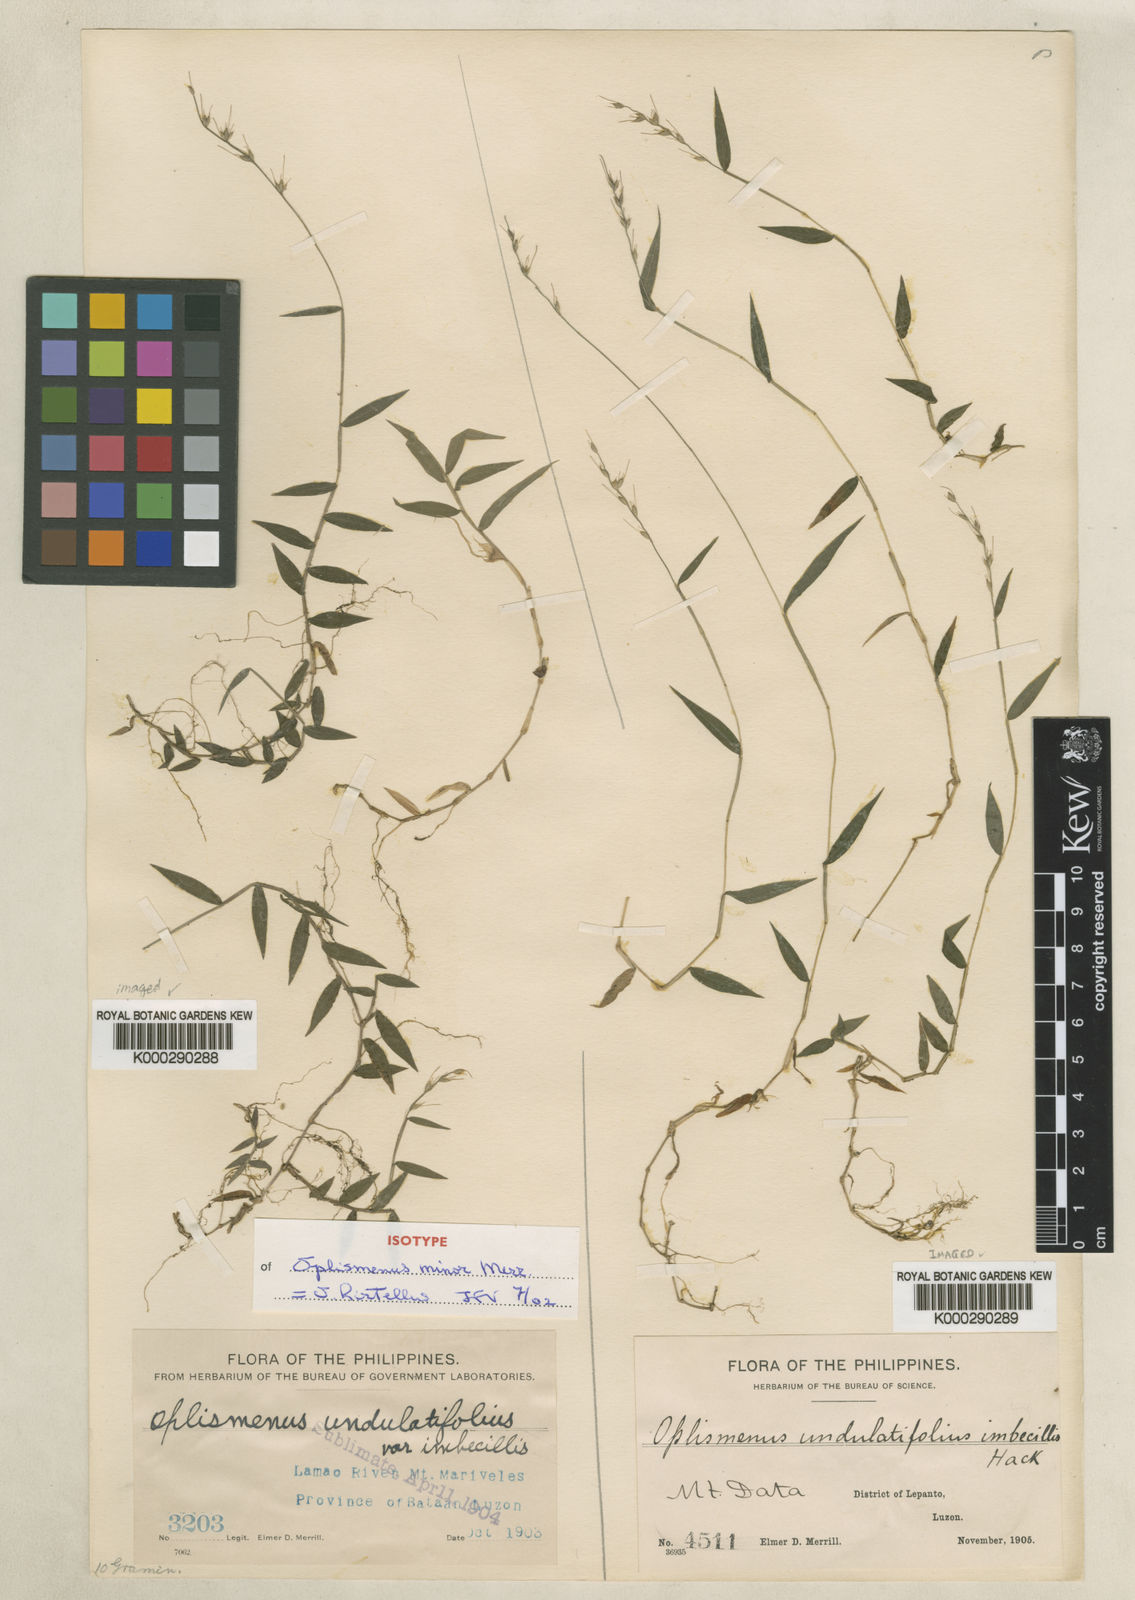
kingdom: Plantae
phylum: Tracheophyta
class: Liliopsida
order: Poales
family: Poaceae
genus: Oplismenus
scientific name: Oplismenus hirtellus
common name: Basketgrass
